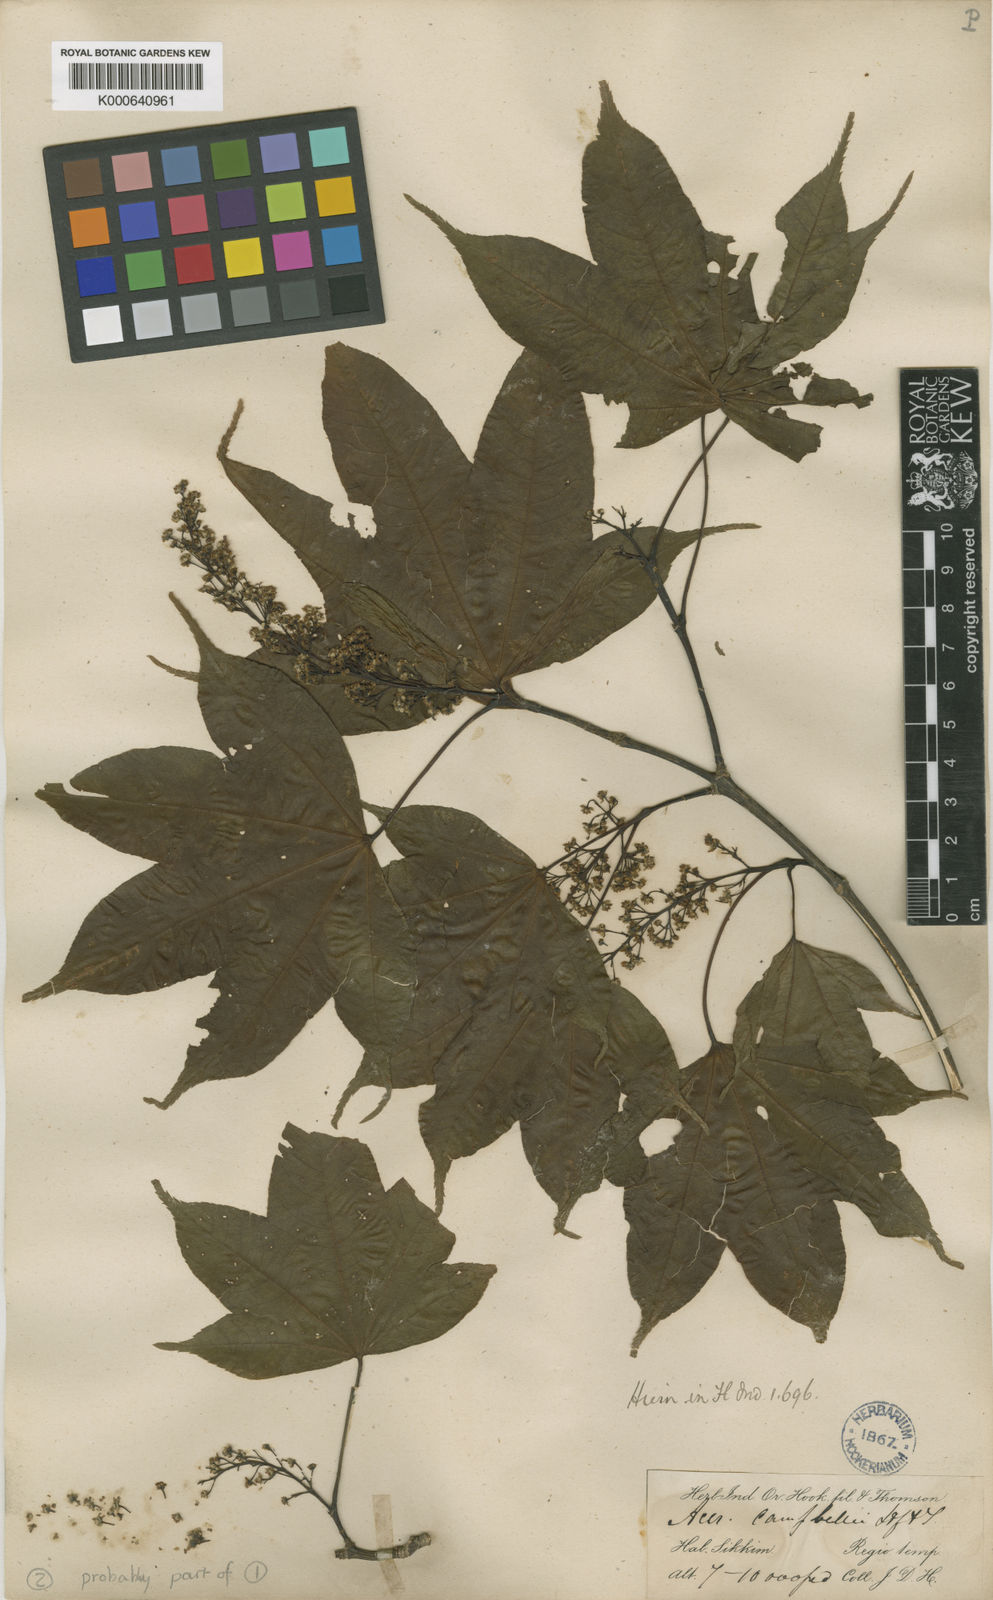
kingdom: Plantae
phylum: Tracheophyta
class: Magnoliopsida
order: Sapindales
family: Sapindaceae
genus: Acer
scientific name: Acer
